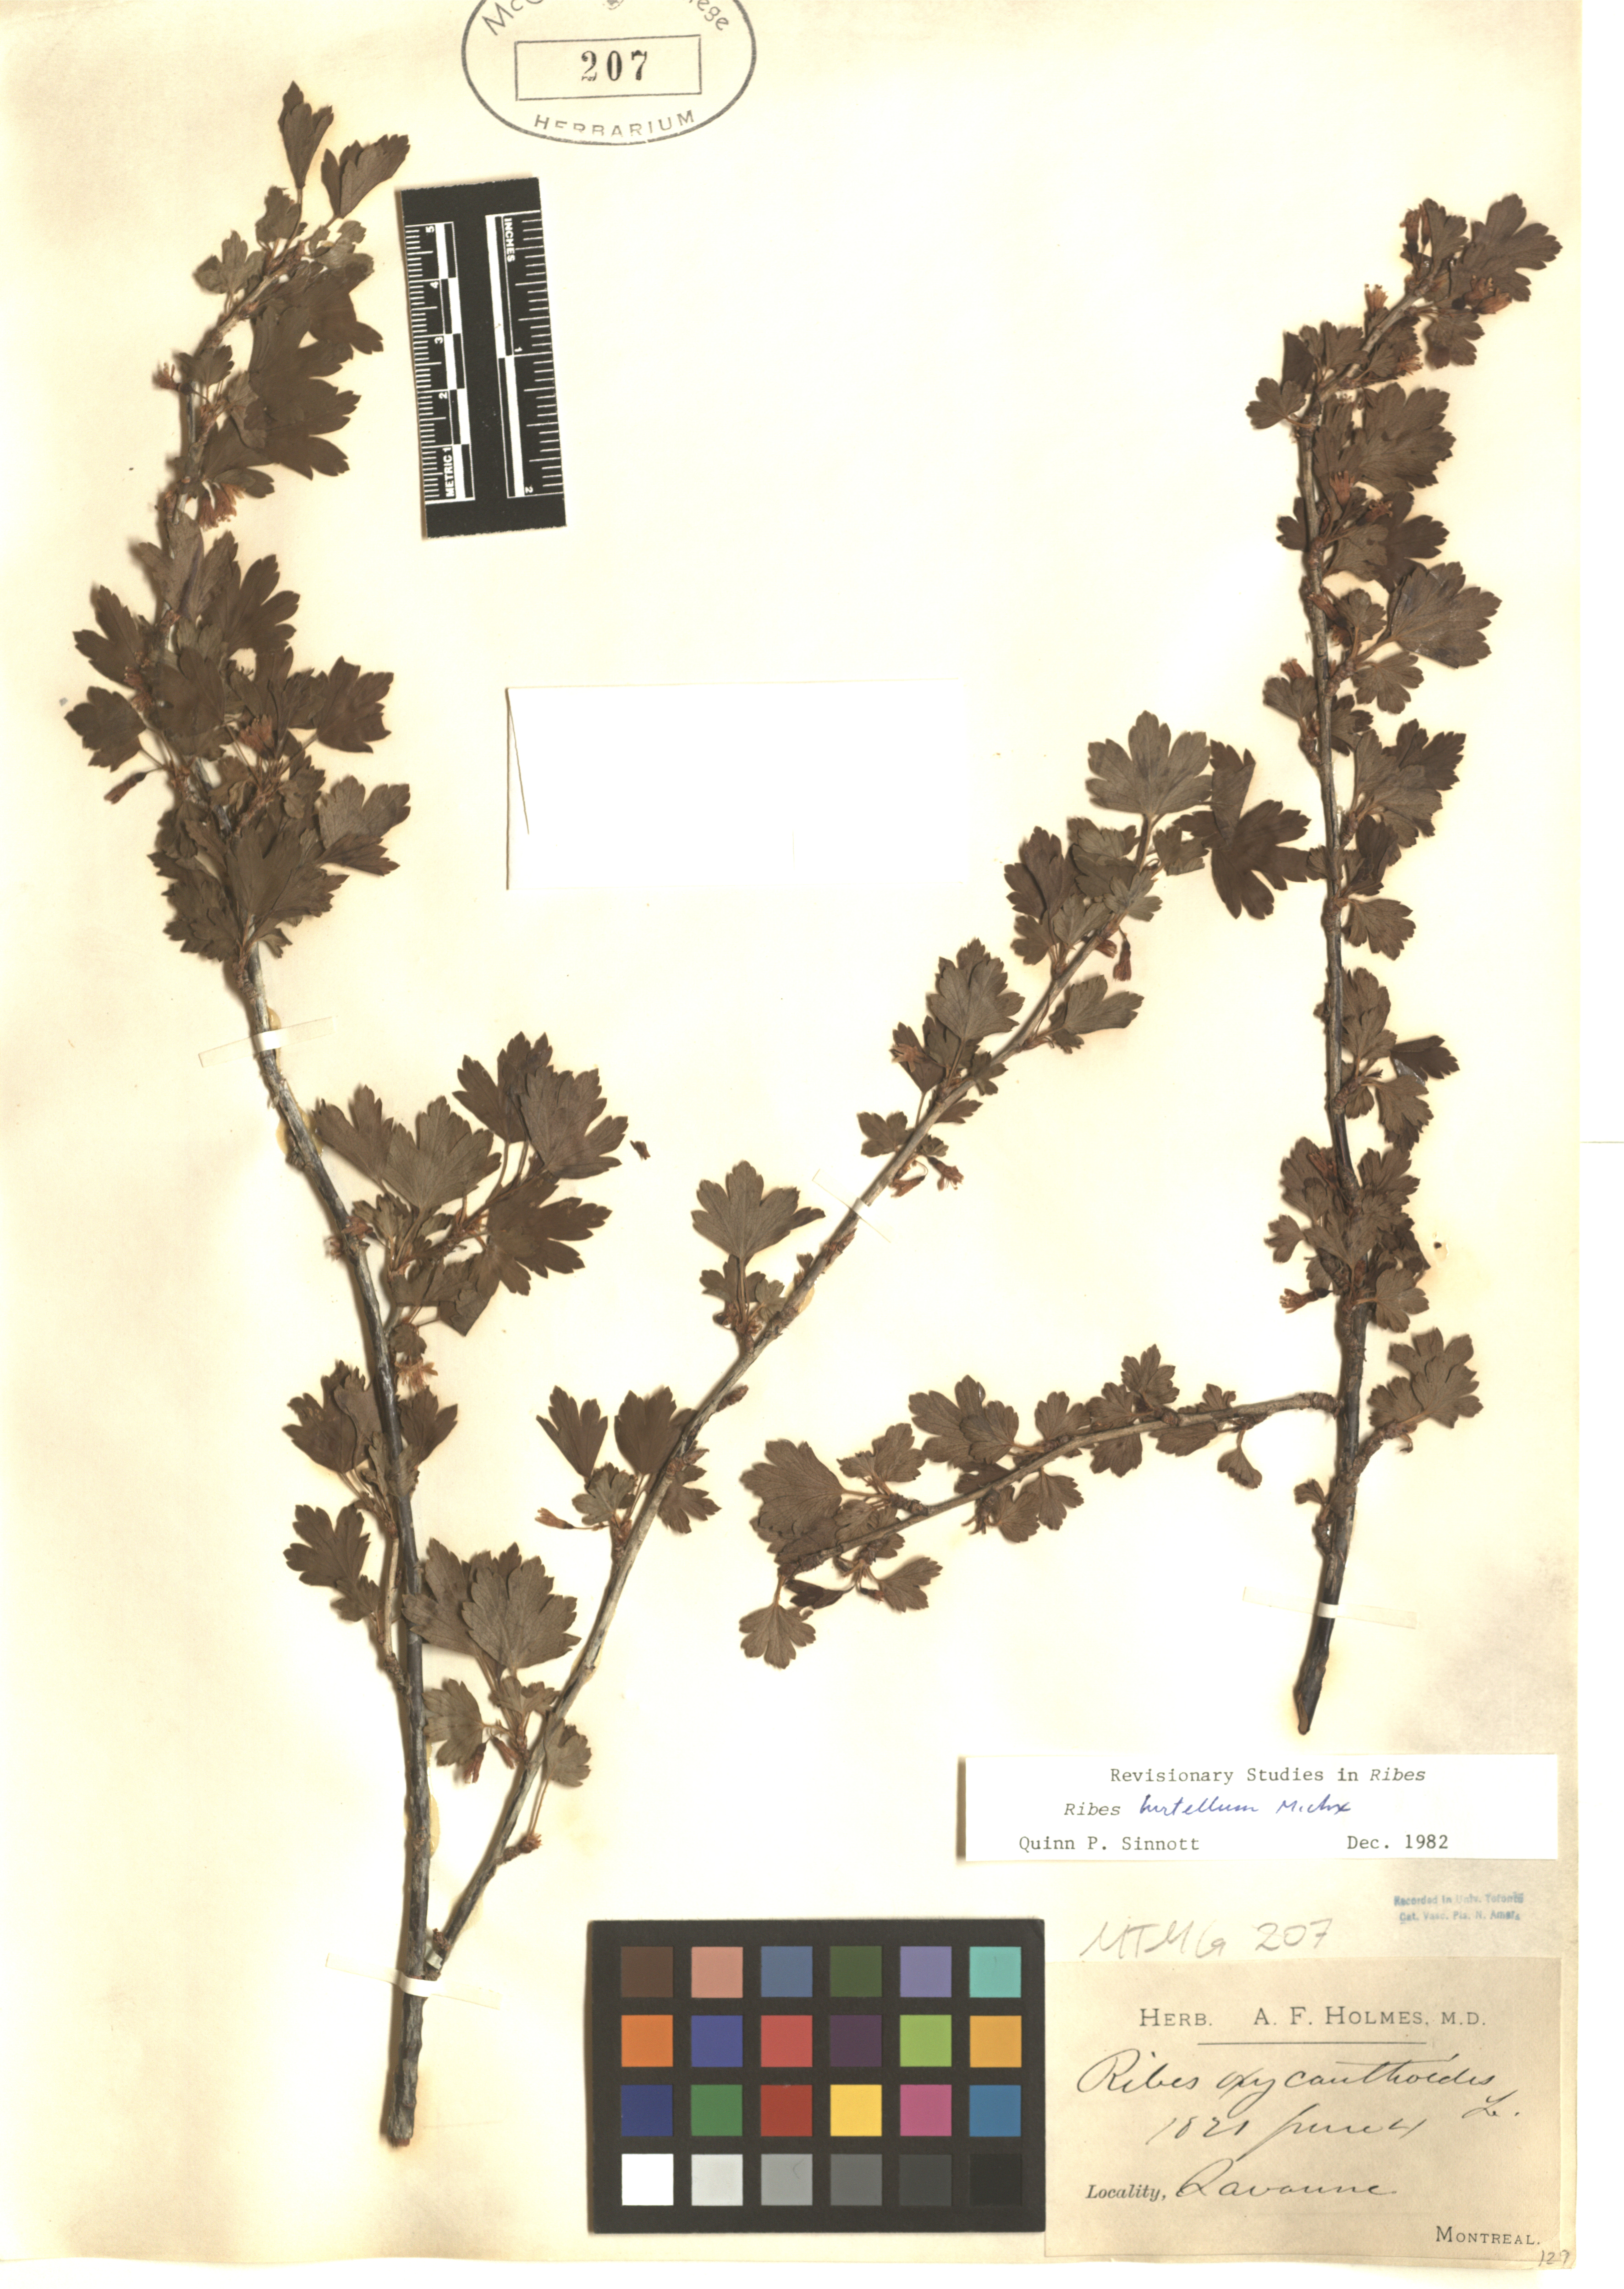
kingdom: Plantae
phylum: Tracheophyta
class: Magnoliopsida
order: Saxifragales
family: Grossulariaceae
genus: Ribes
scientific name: Ribes hirtellum
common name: Hairy gooseberry
